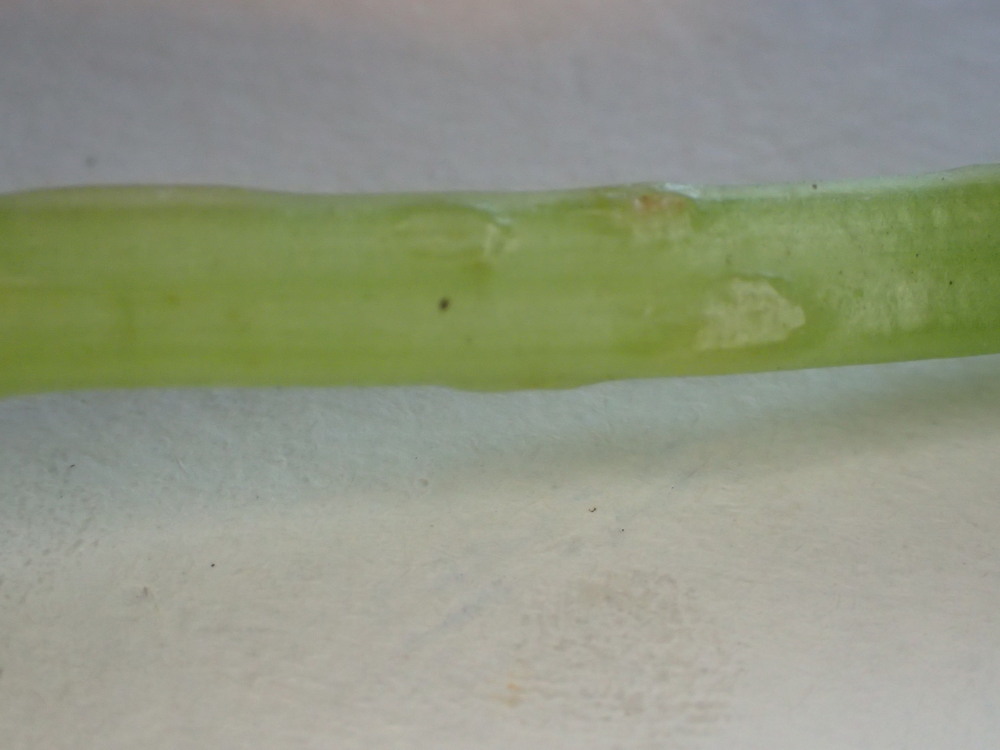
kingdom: Fungi
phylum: Ascomycota
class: Taphrinomycetes
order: Taphrinales
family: Taphrinaceae
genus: Protomyces
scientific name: Protomyces macrosporus
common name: skvalderkål-vablesæk
